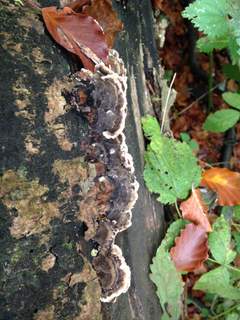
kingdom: Fungi
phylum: Basidiomycota
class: Agaricomycetes
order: Polyporales
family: Polyporaceae
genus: Trametes
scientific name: Trametes versicolor
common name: broget læderporesvamp
